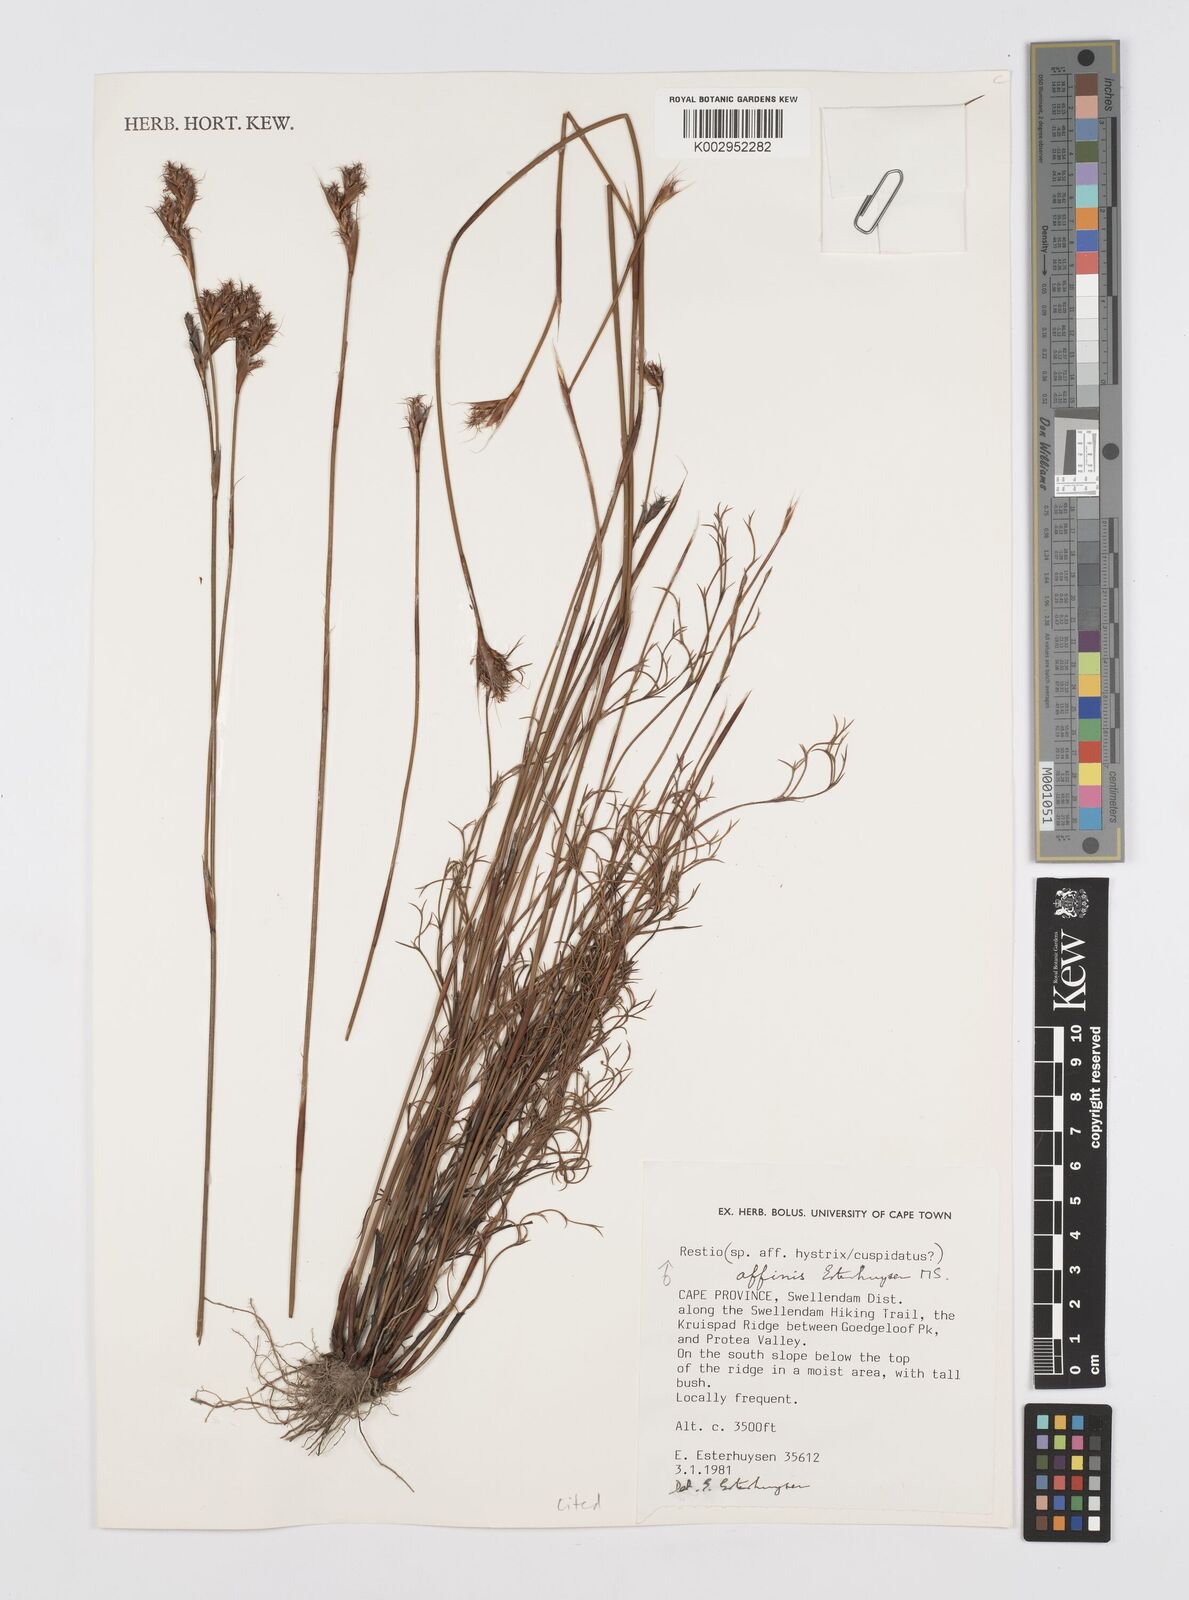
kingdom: Plantae
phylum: Tracheophyta
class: Liliopsida
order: Poales
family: Restionaceae
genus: Restio
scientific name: Restio affinis
